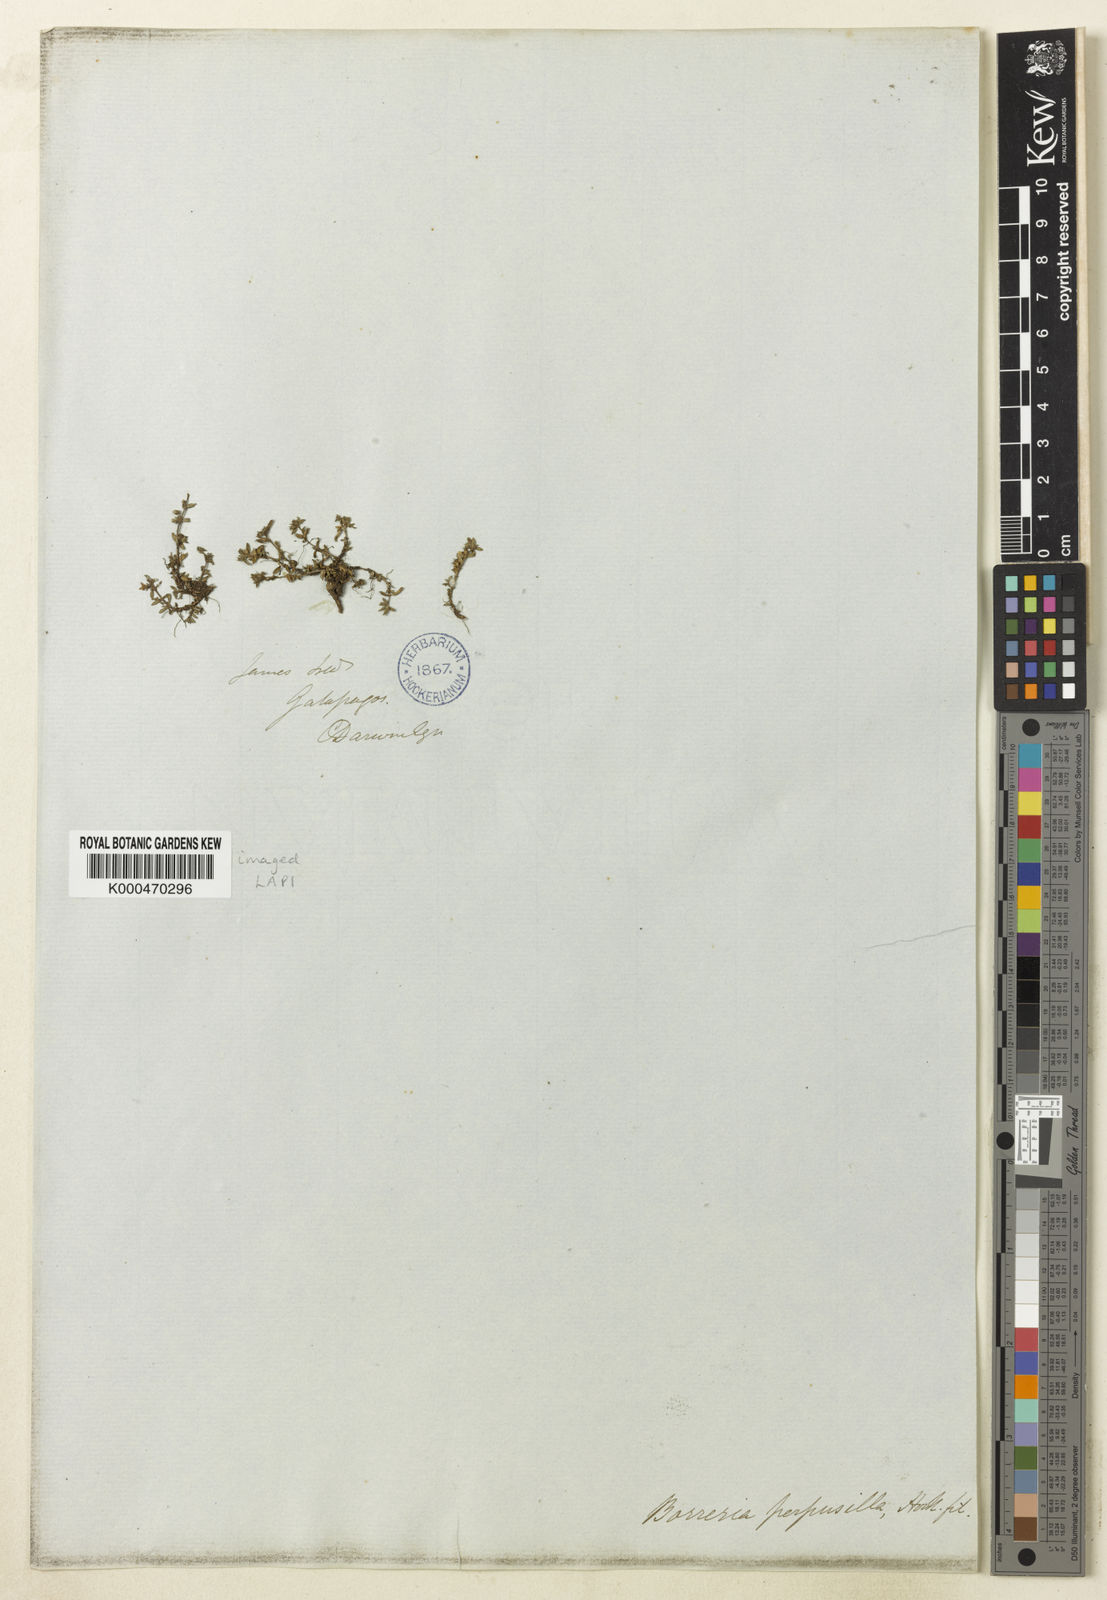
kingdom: Plantae
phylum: Tracheophyta
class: Magnoliopsida
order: Gentianales
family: Rubiaceae
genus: Spermacoce
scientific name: Spermacoce perpusilla
